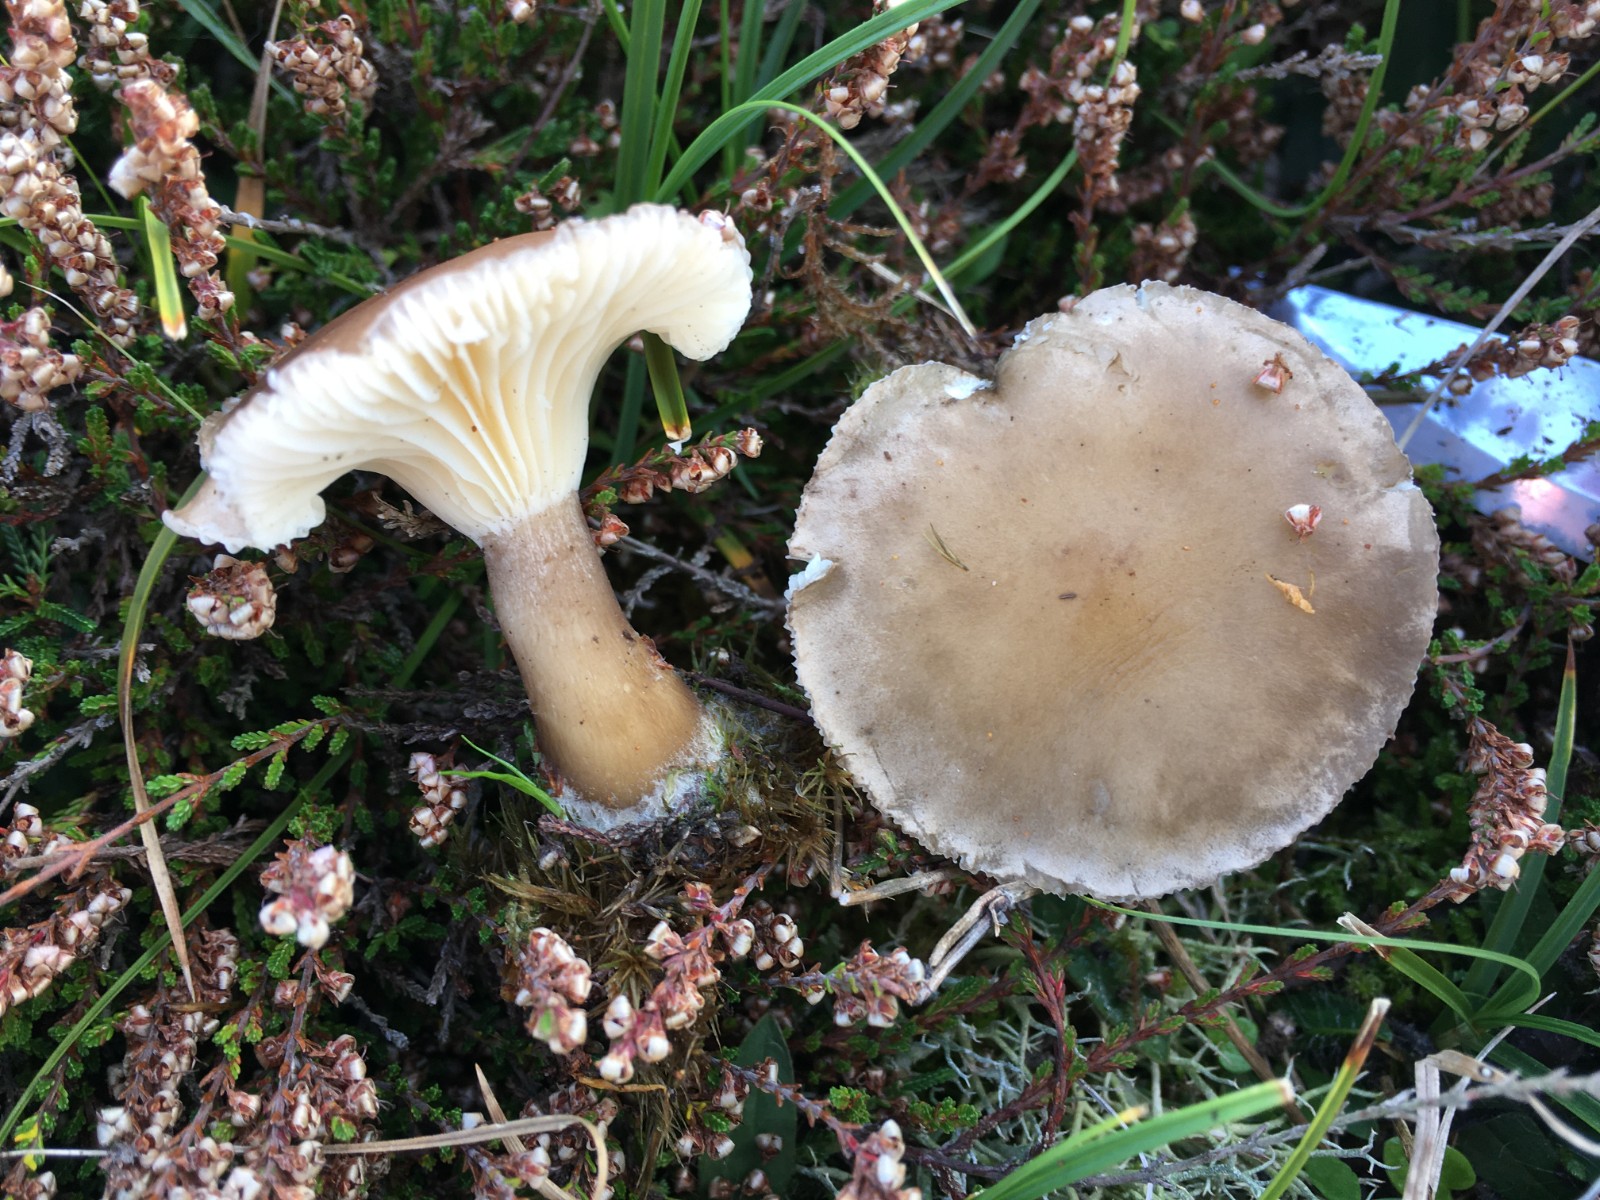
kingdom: Fungi
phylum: Basidiomycota
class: Agaricomycetes
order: Agaricales
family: Hygrophoraceae
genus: Ampulloclitocybe
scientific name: Ampulloclitocybe clavipes
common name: køllefod
